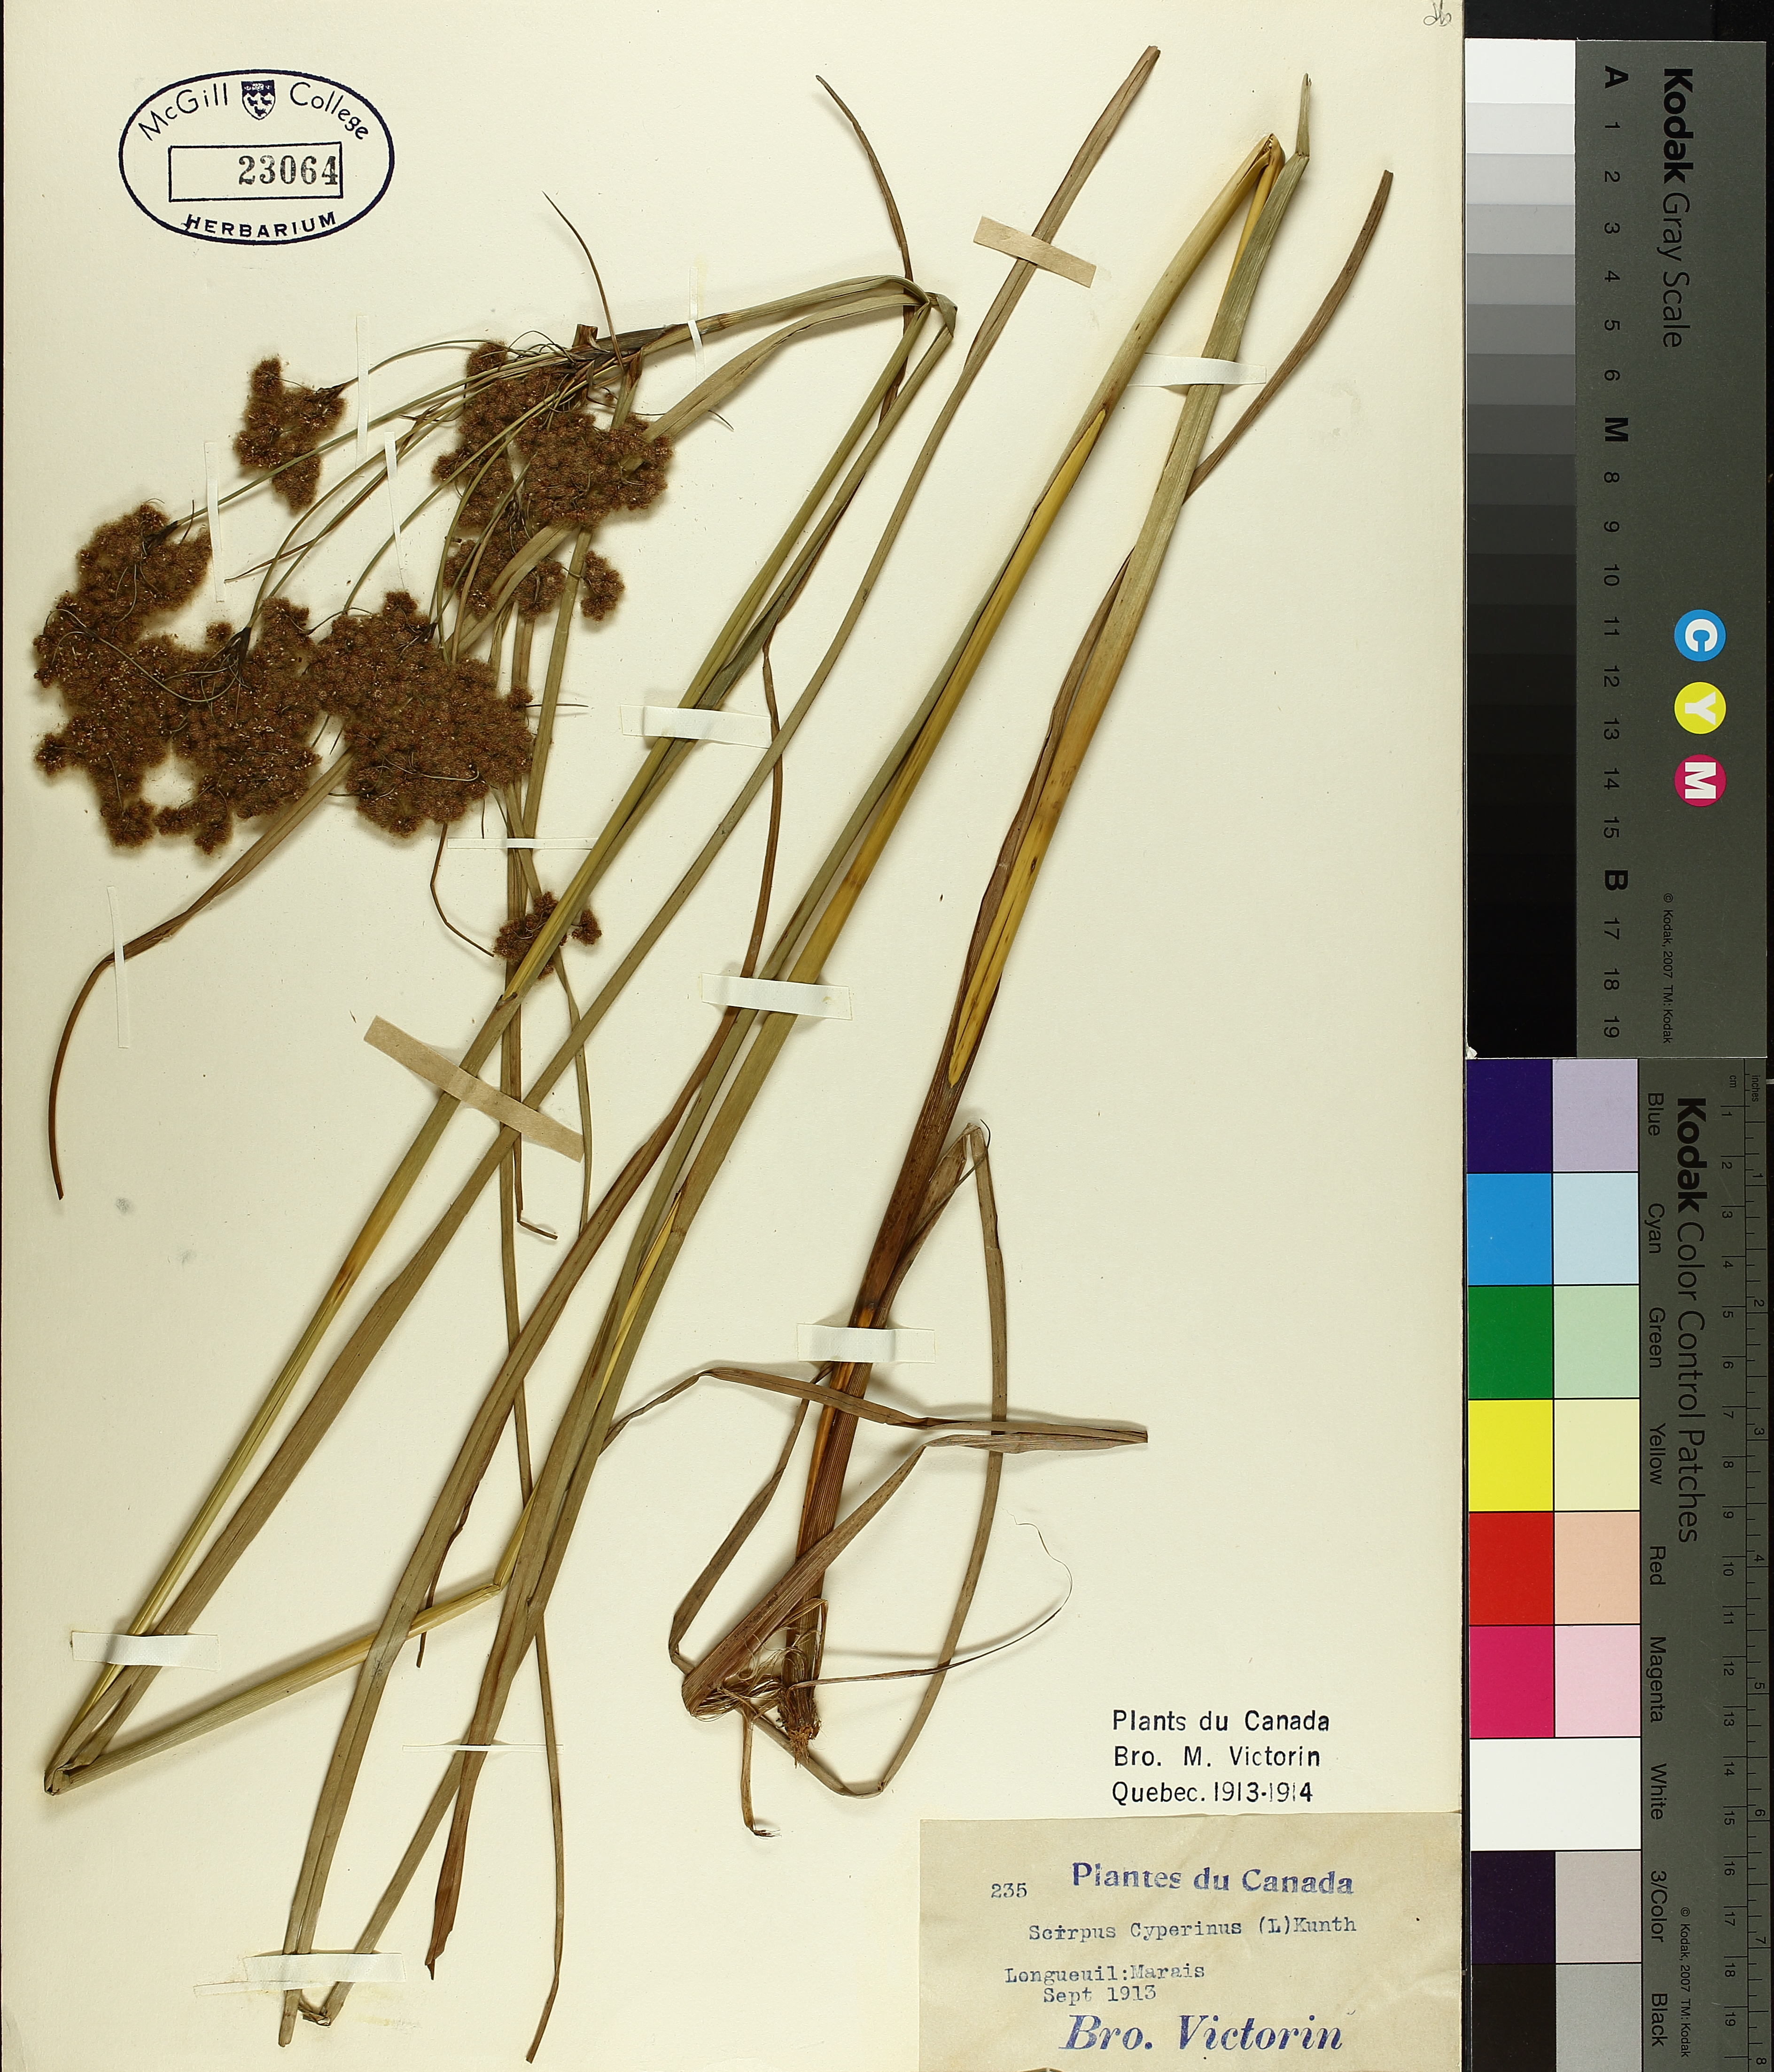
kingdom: Plantae
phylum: Tracheophyta
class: Liliopsida
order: Poales
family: Cyperaceae
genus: Scirpus
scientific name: Scirpus cyperinus
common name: Black-sheathed bulrush
